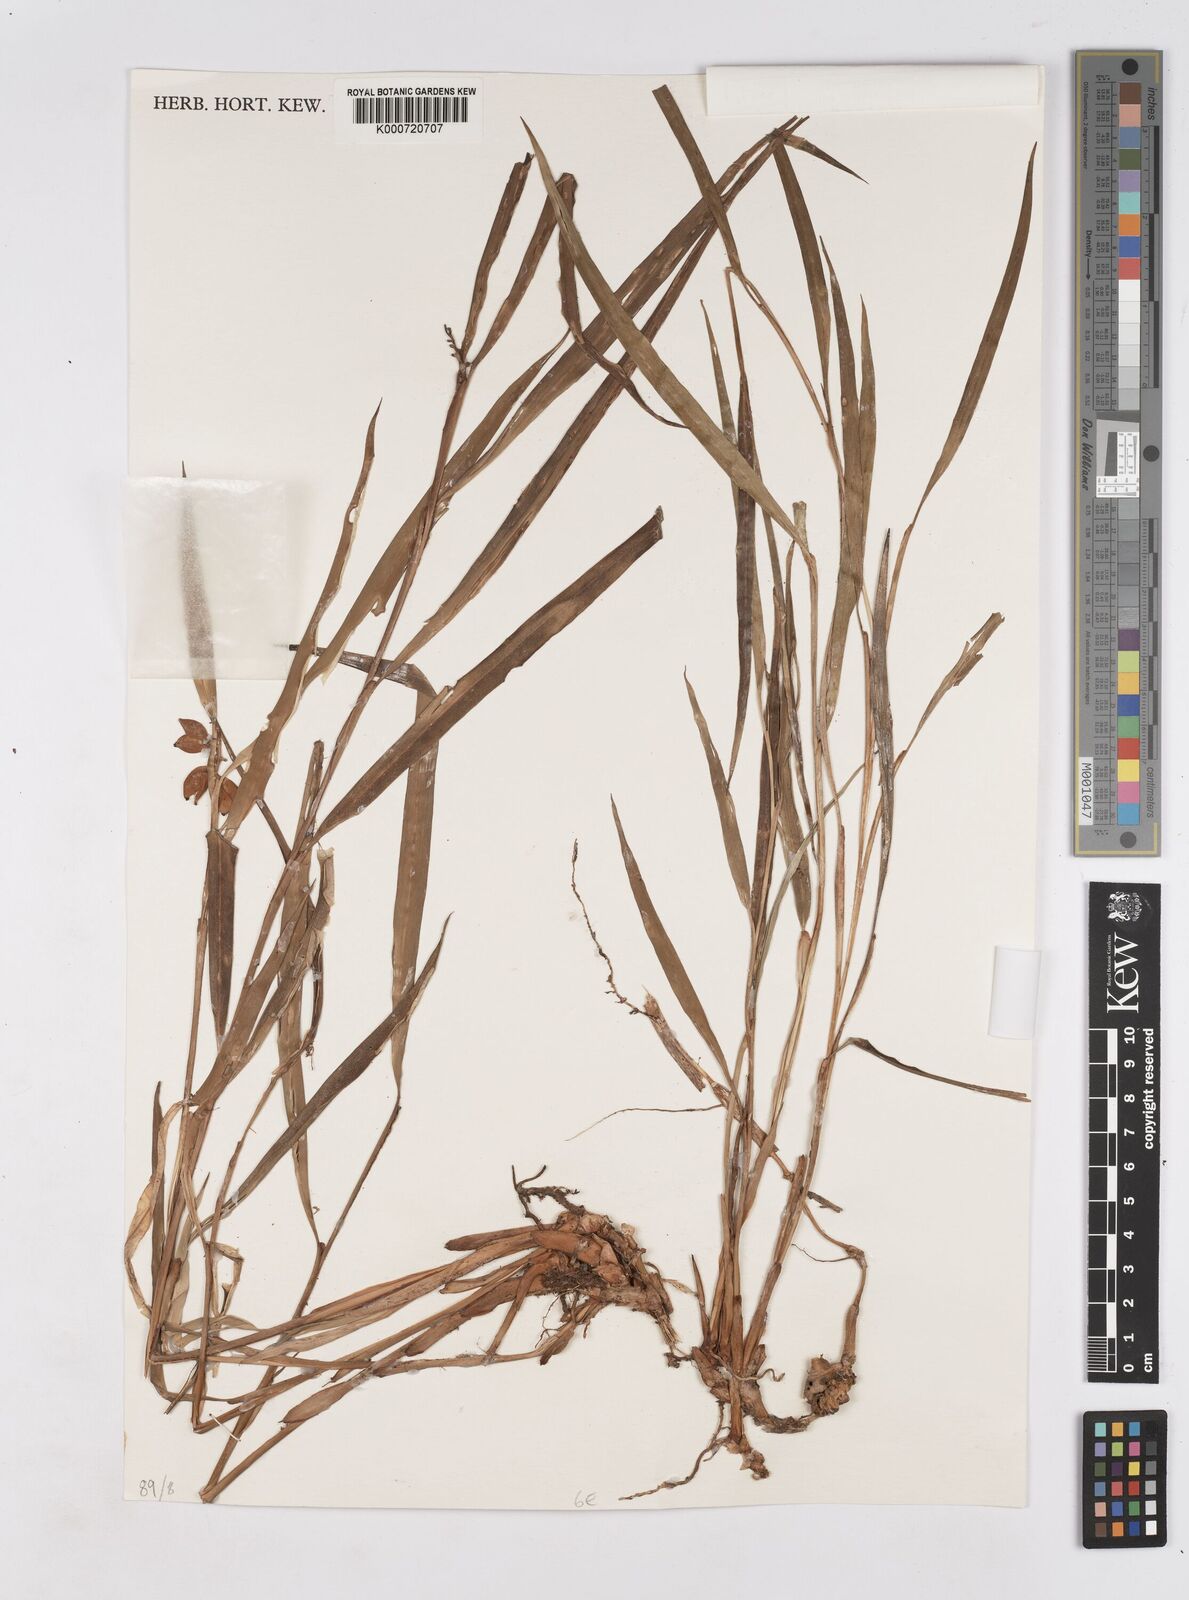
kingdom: Plantae
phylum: Tracheophyta
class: Liliopsida
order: Zingiberales
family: Zingiberaceae
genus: Riedelia
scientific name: Riedelia
